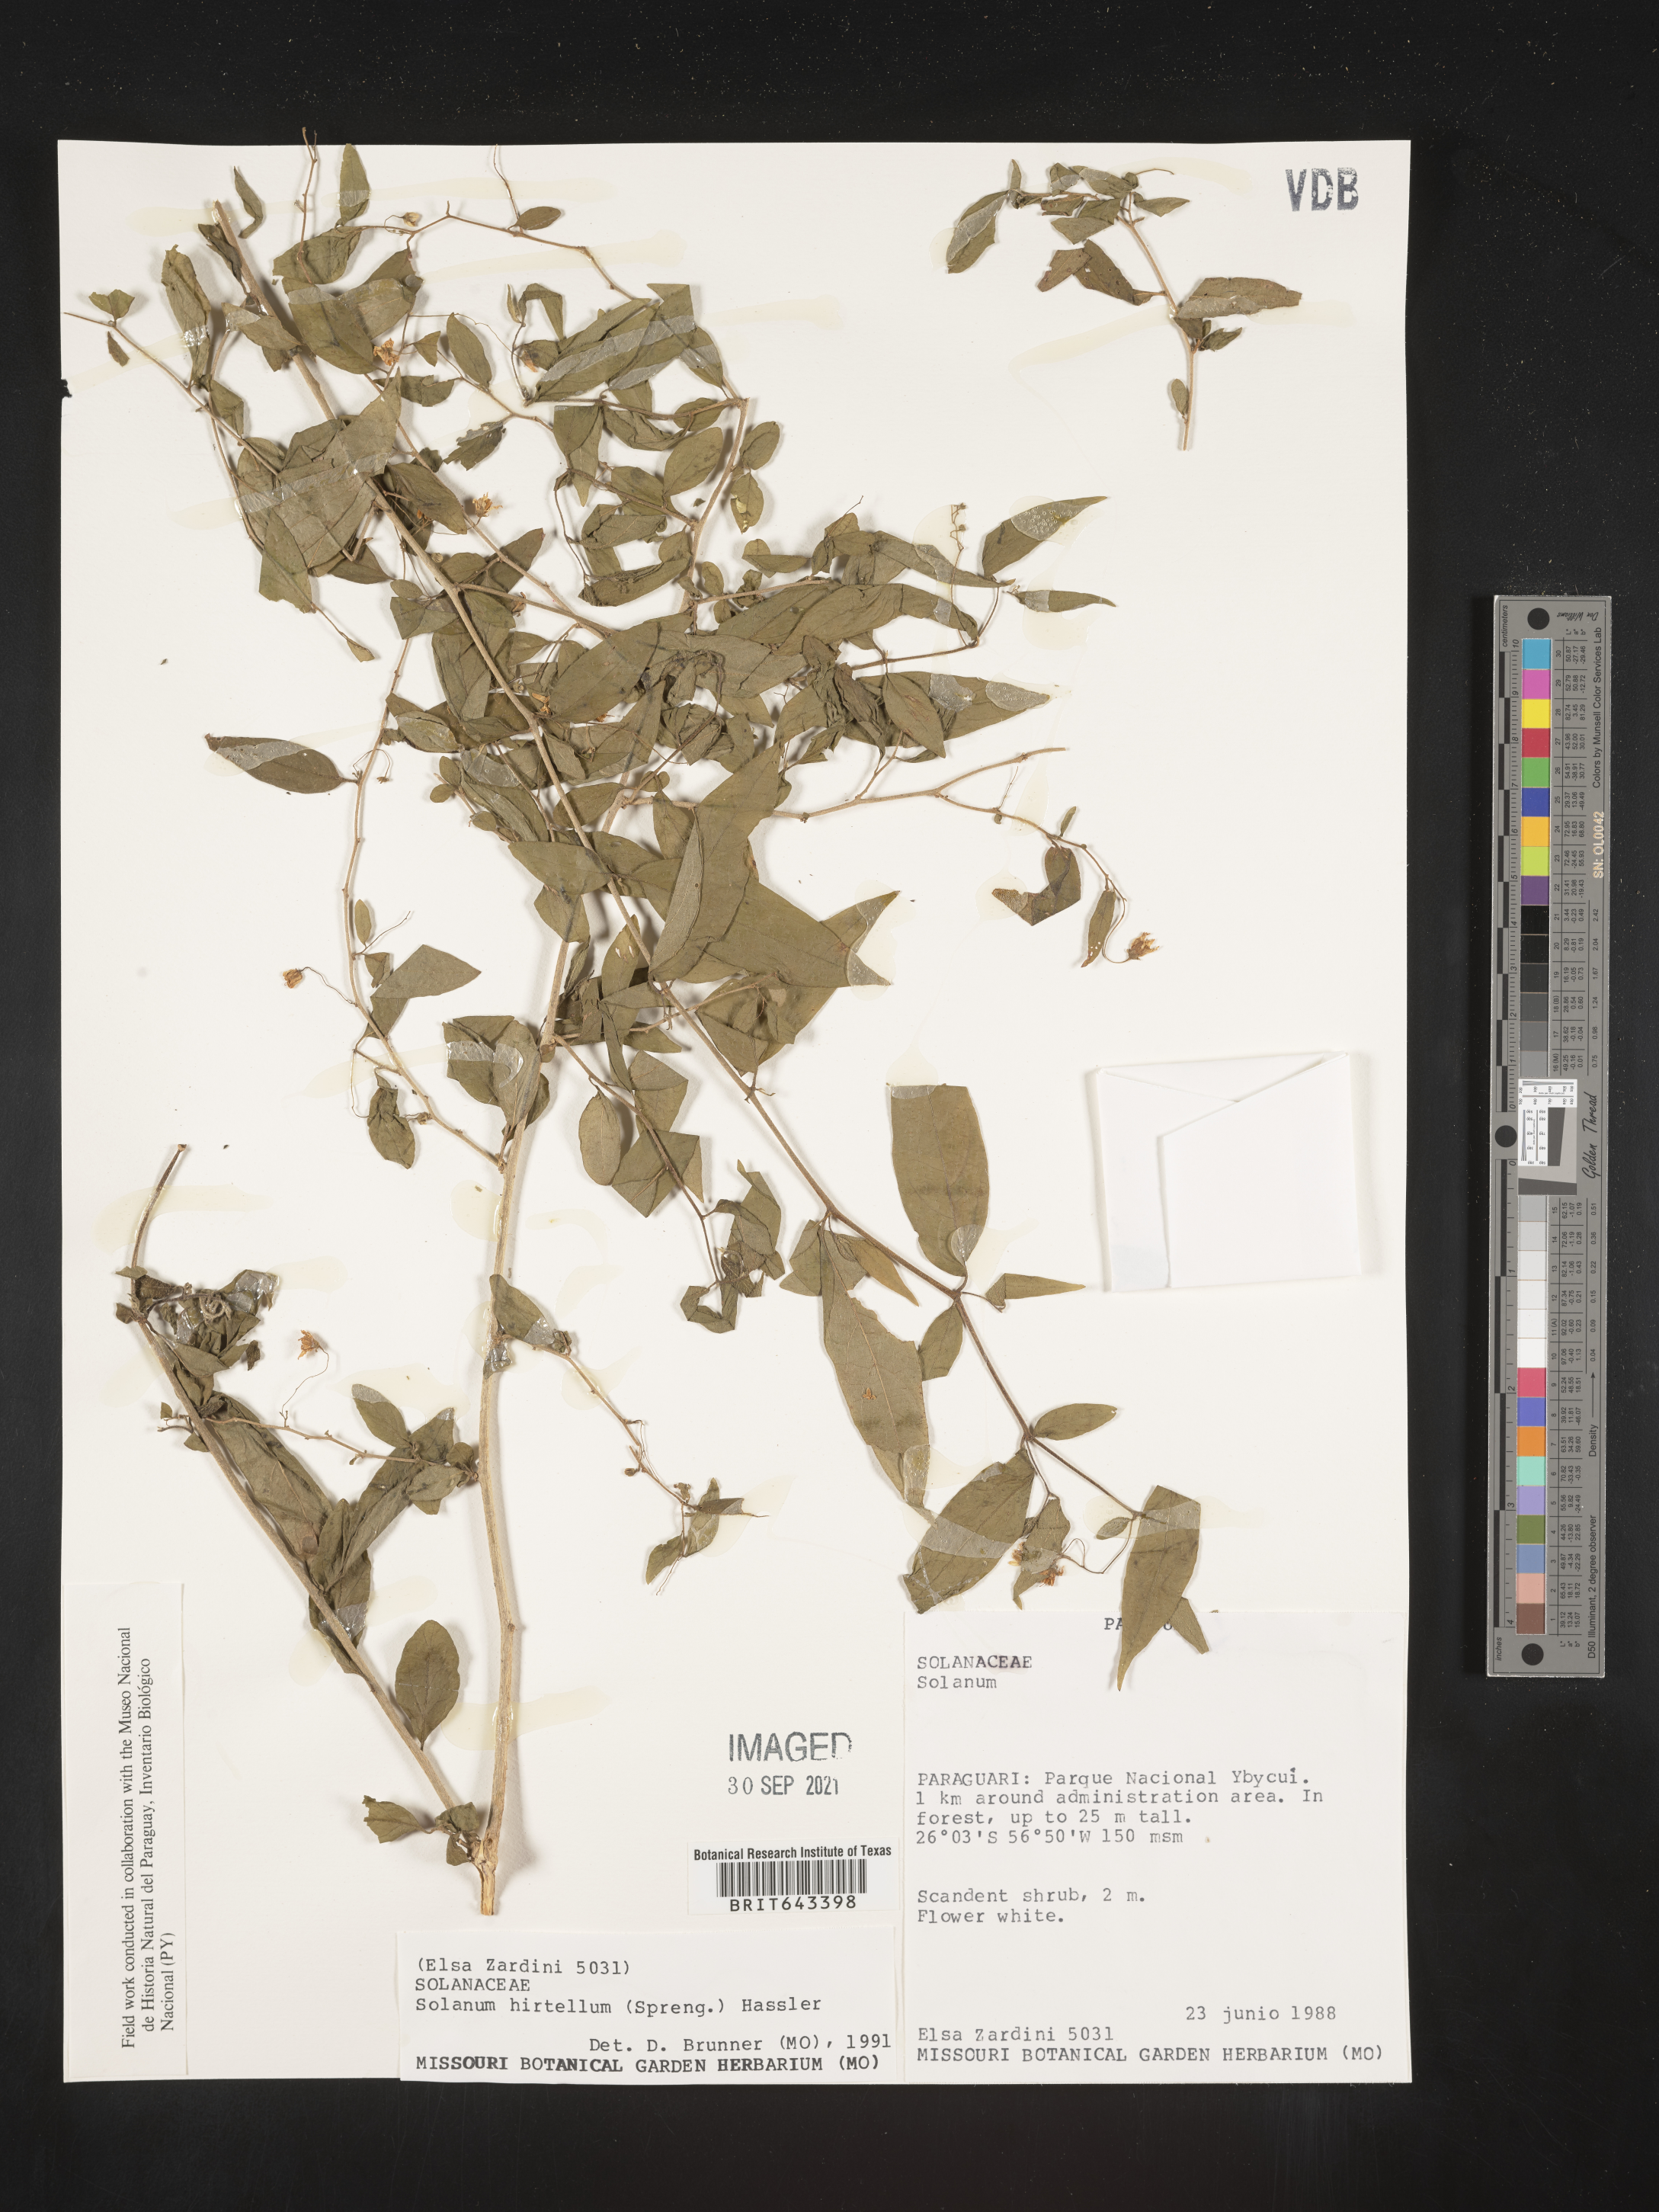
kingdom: Plantae
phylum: Tracheophyta
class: Magnoliopsida
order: Solanales
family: Solanaceae
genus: Solanum
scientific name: Solanum
